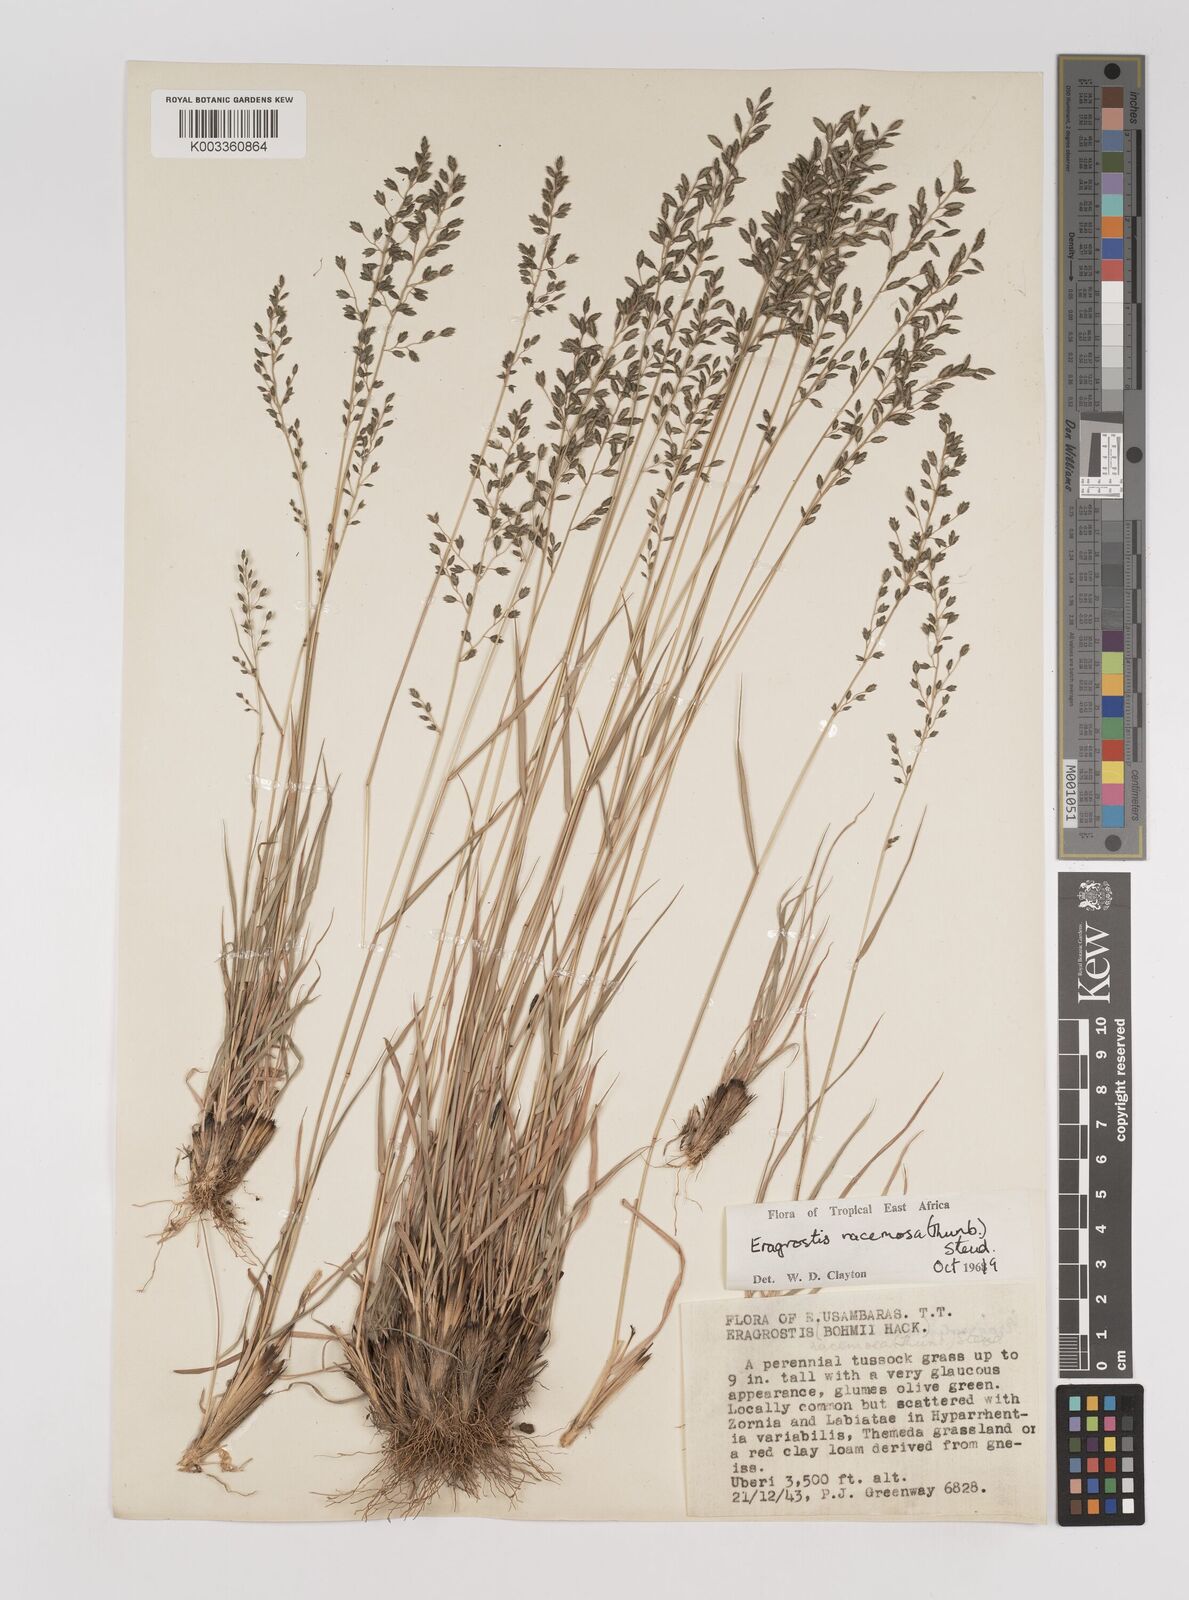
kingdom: Plantae
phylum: Tracheophyta
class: Liliopsida
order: Poales
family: Poaceae
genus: Eragrostis
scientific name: Eragrostis racemosa
